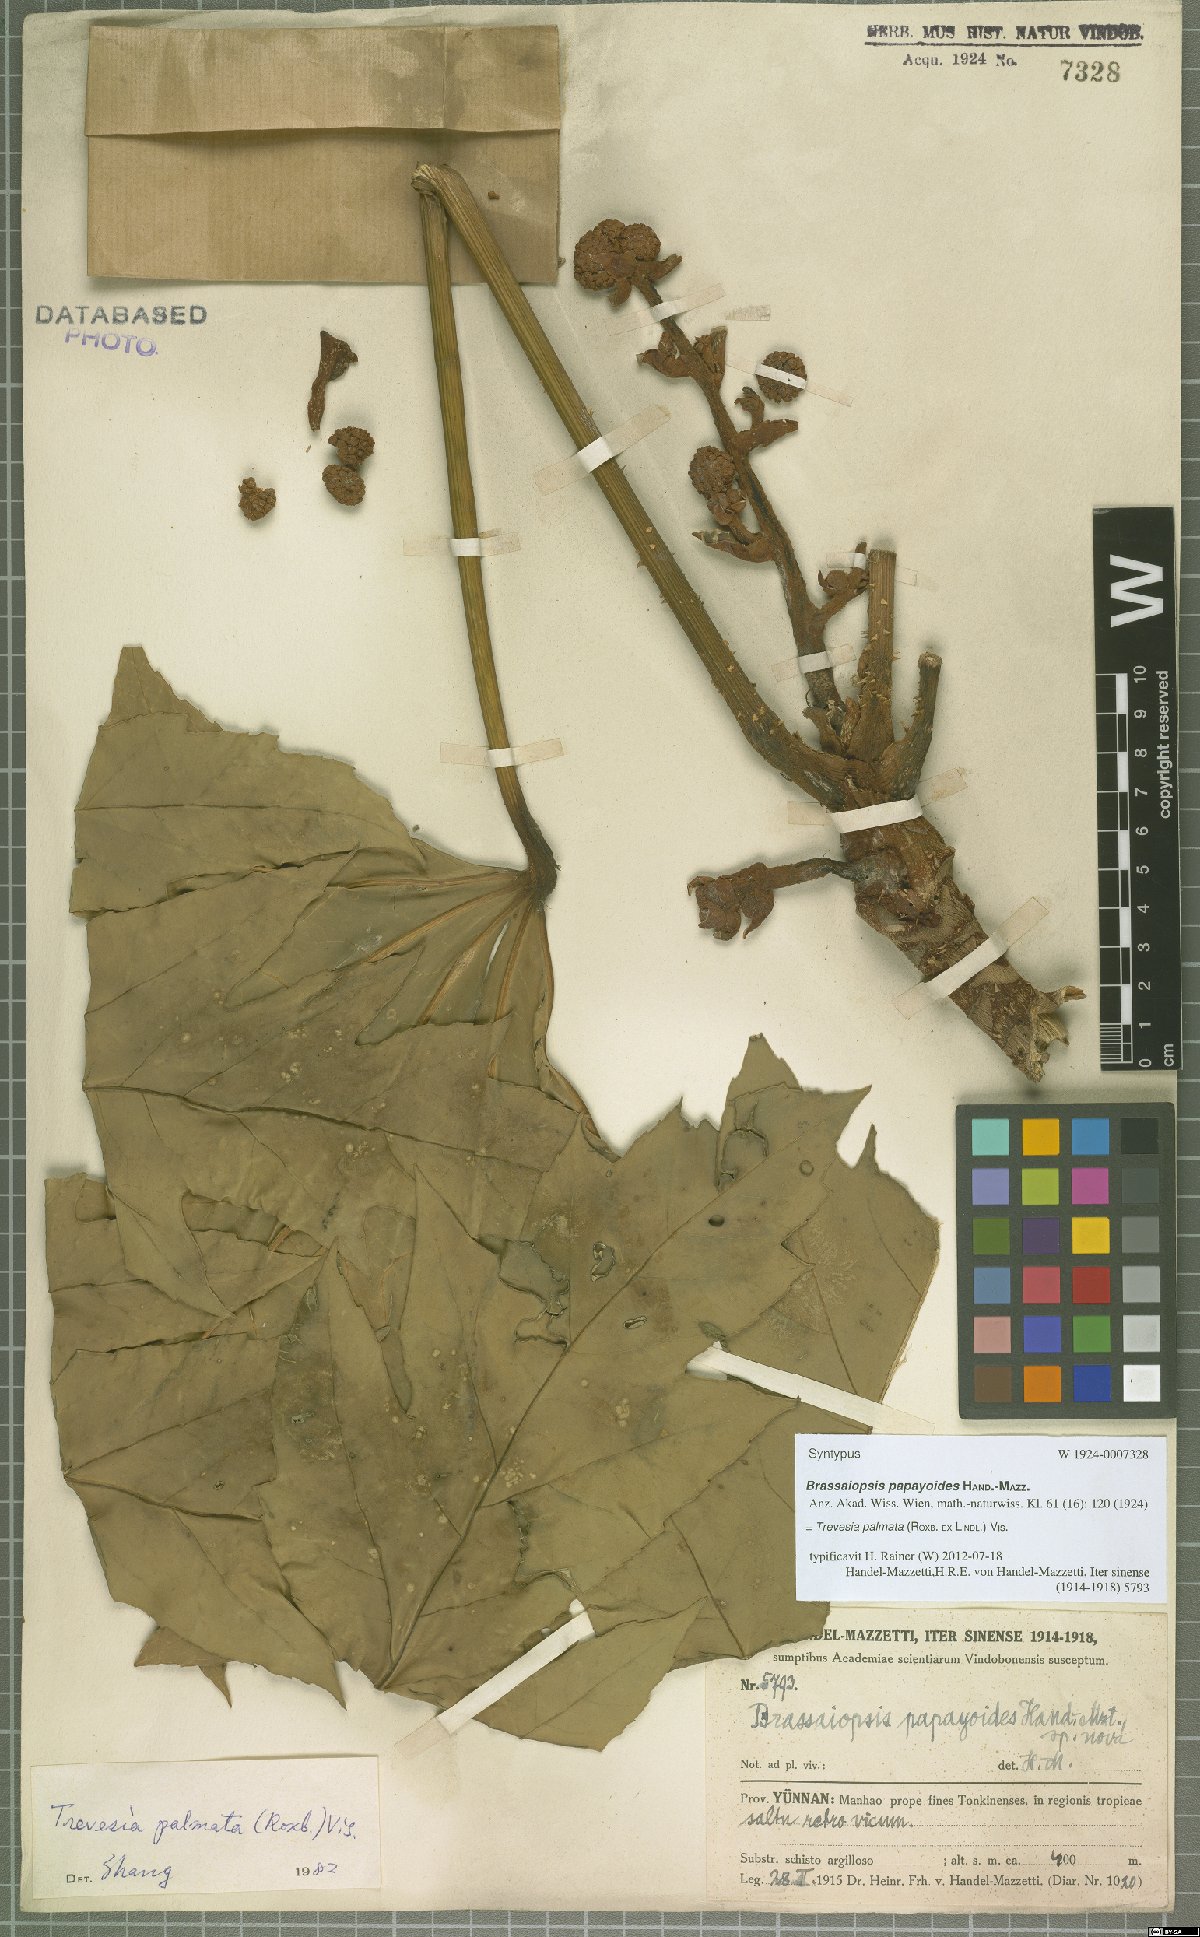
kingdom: Plantae
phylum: Tracheophyta
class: Magnoliopsida
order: Apiales
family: Araliaceae
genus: Trevesia
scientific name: Trevesia palmata
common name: Snowflakeplant
